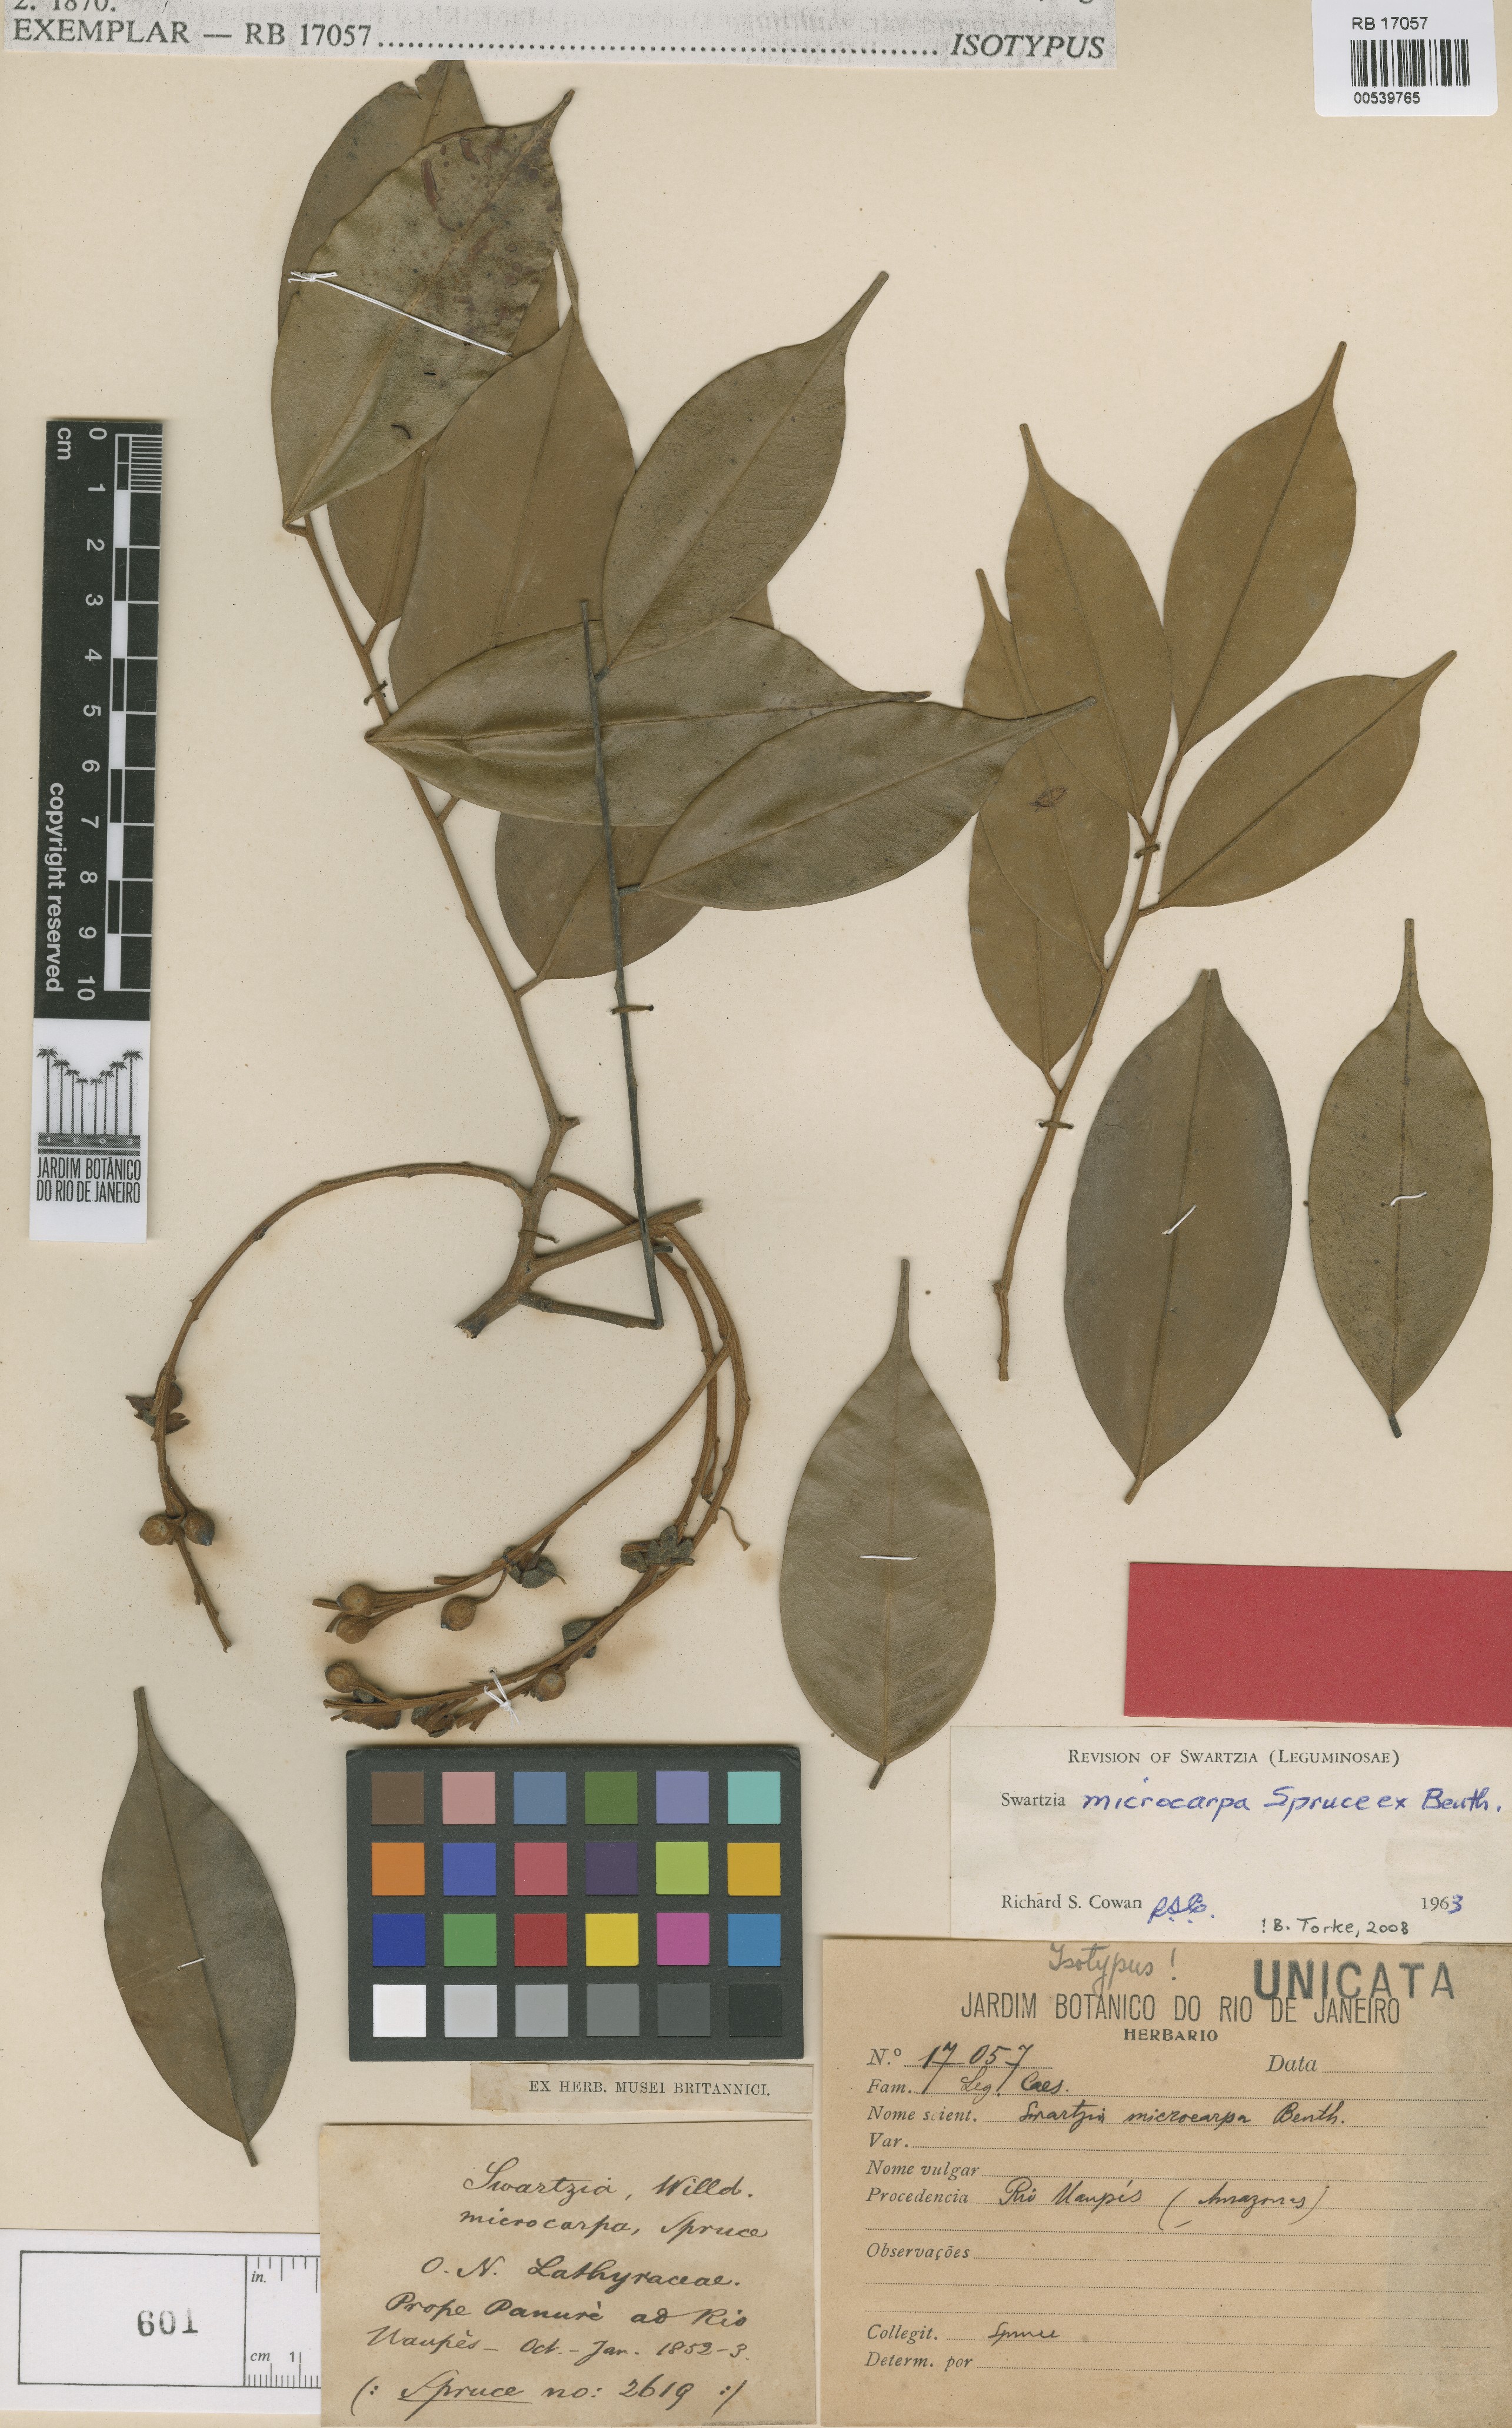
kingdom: Plantae
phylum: Tracheophyta
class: Magnoliopsida
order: Fabales
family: Fabaceae
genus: Swartzia
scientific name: Swartzia microcarpa
